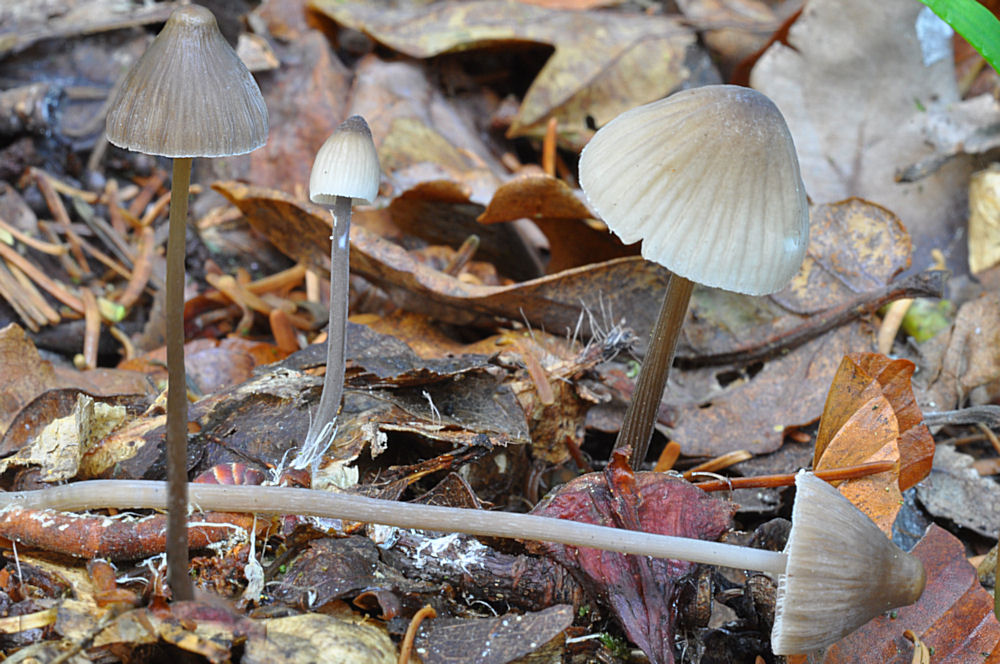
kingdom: Fungi
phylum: Basidiomycota
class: Agaricomycetes
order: Agaricales
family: Mycenaceae
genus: Mycena
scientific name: Mycena polygramma
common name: mangestribet huesvamp
